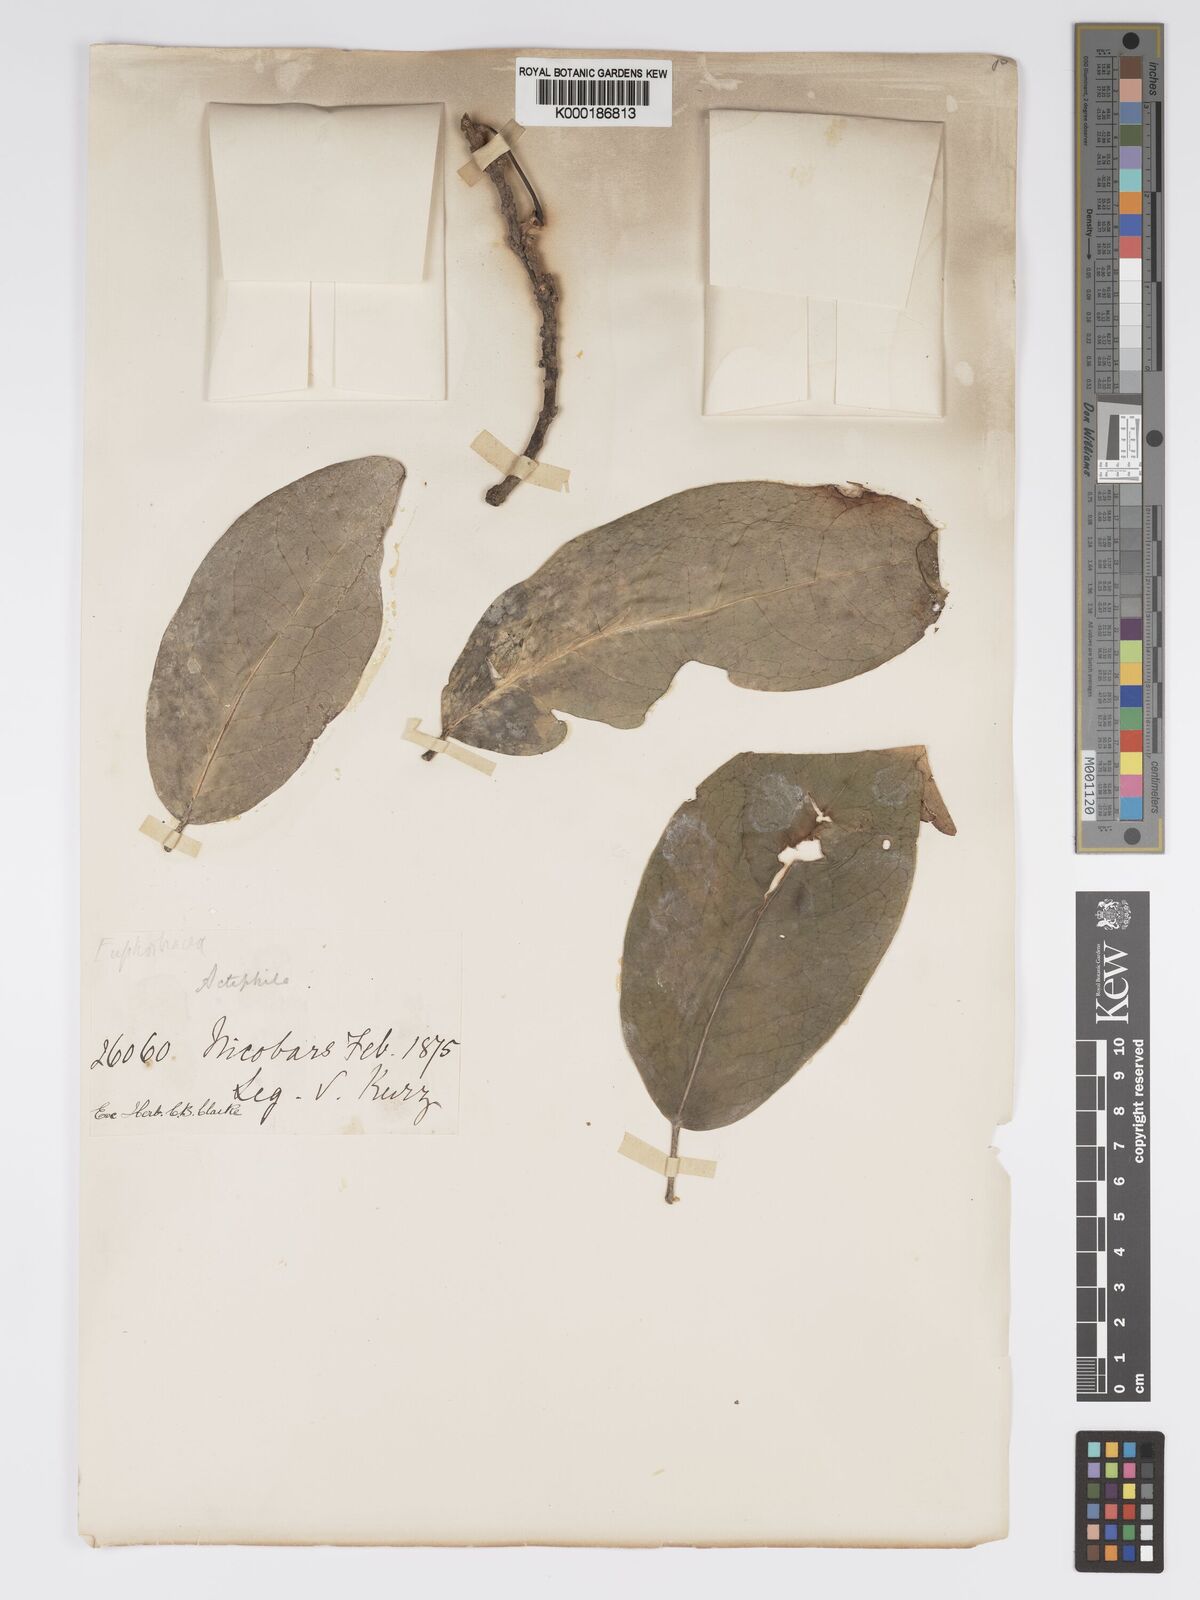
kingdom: Plantae
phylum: Tracheophyta
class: Magnoliopsida
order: Malpighiales
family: Phyllanthaceae
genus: Actephila
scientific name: Actephila excelsa
